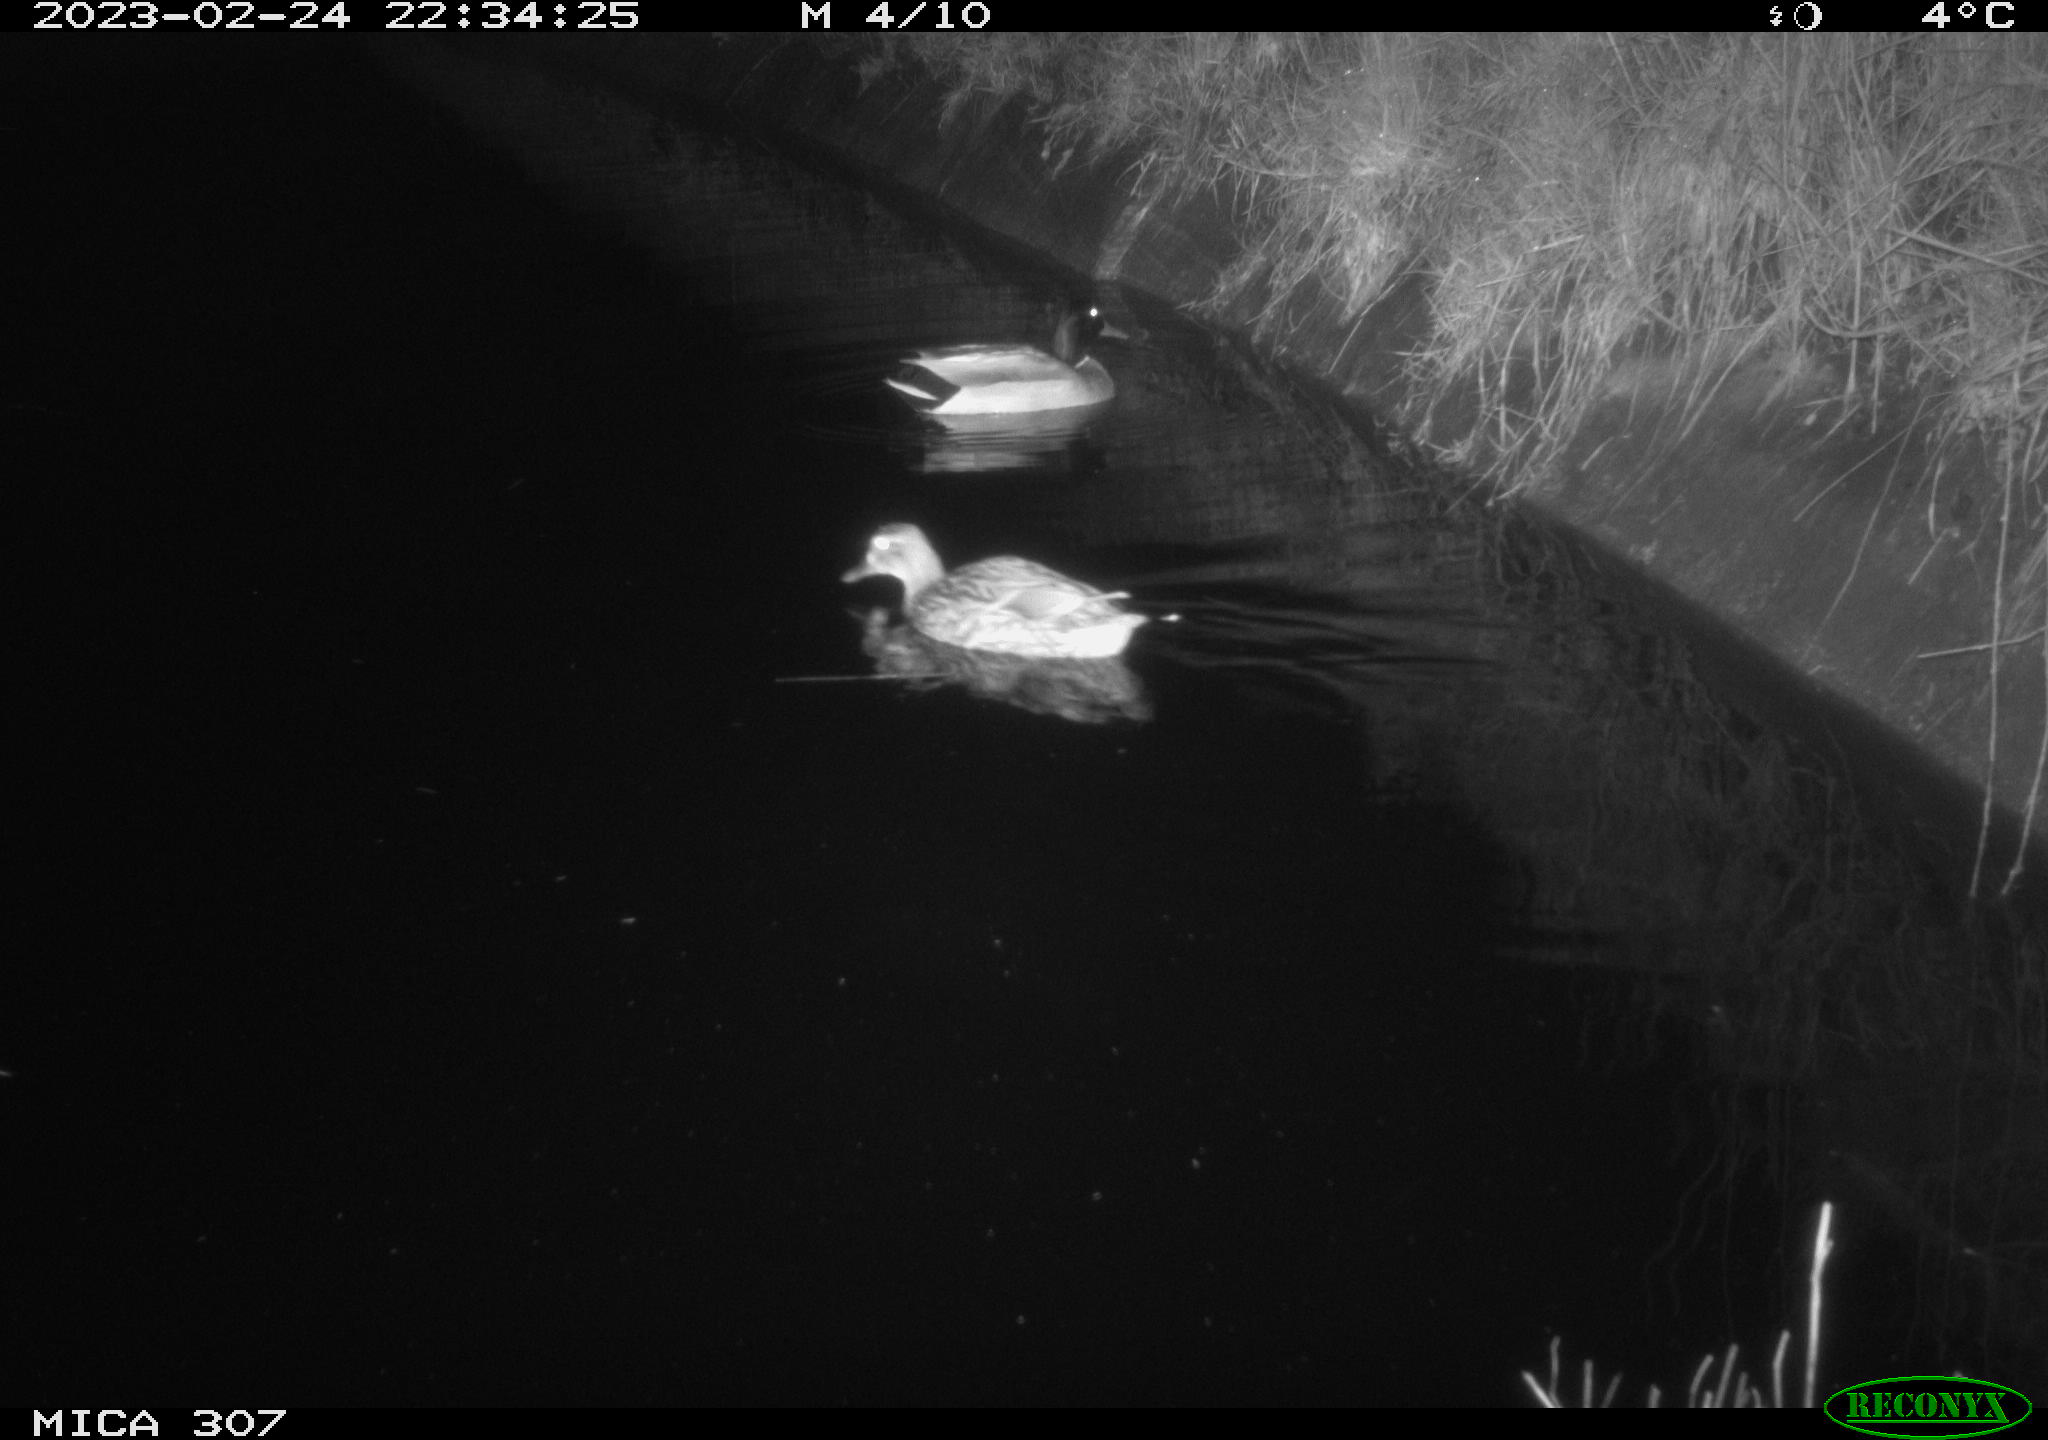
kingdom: Animalia
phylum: Chordata
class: Aves
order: Anseriformes
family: Anatidae
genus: Anas
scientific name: Anas
